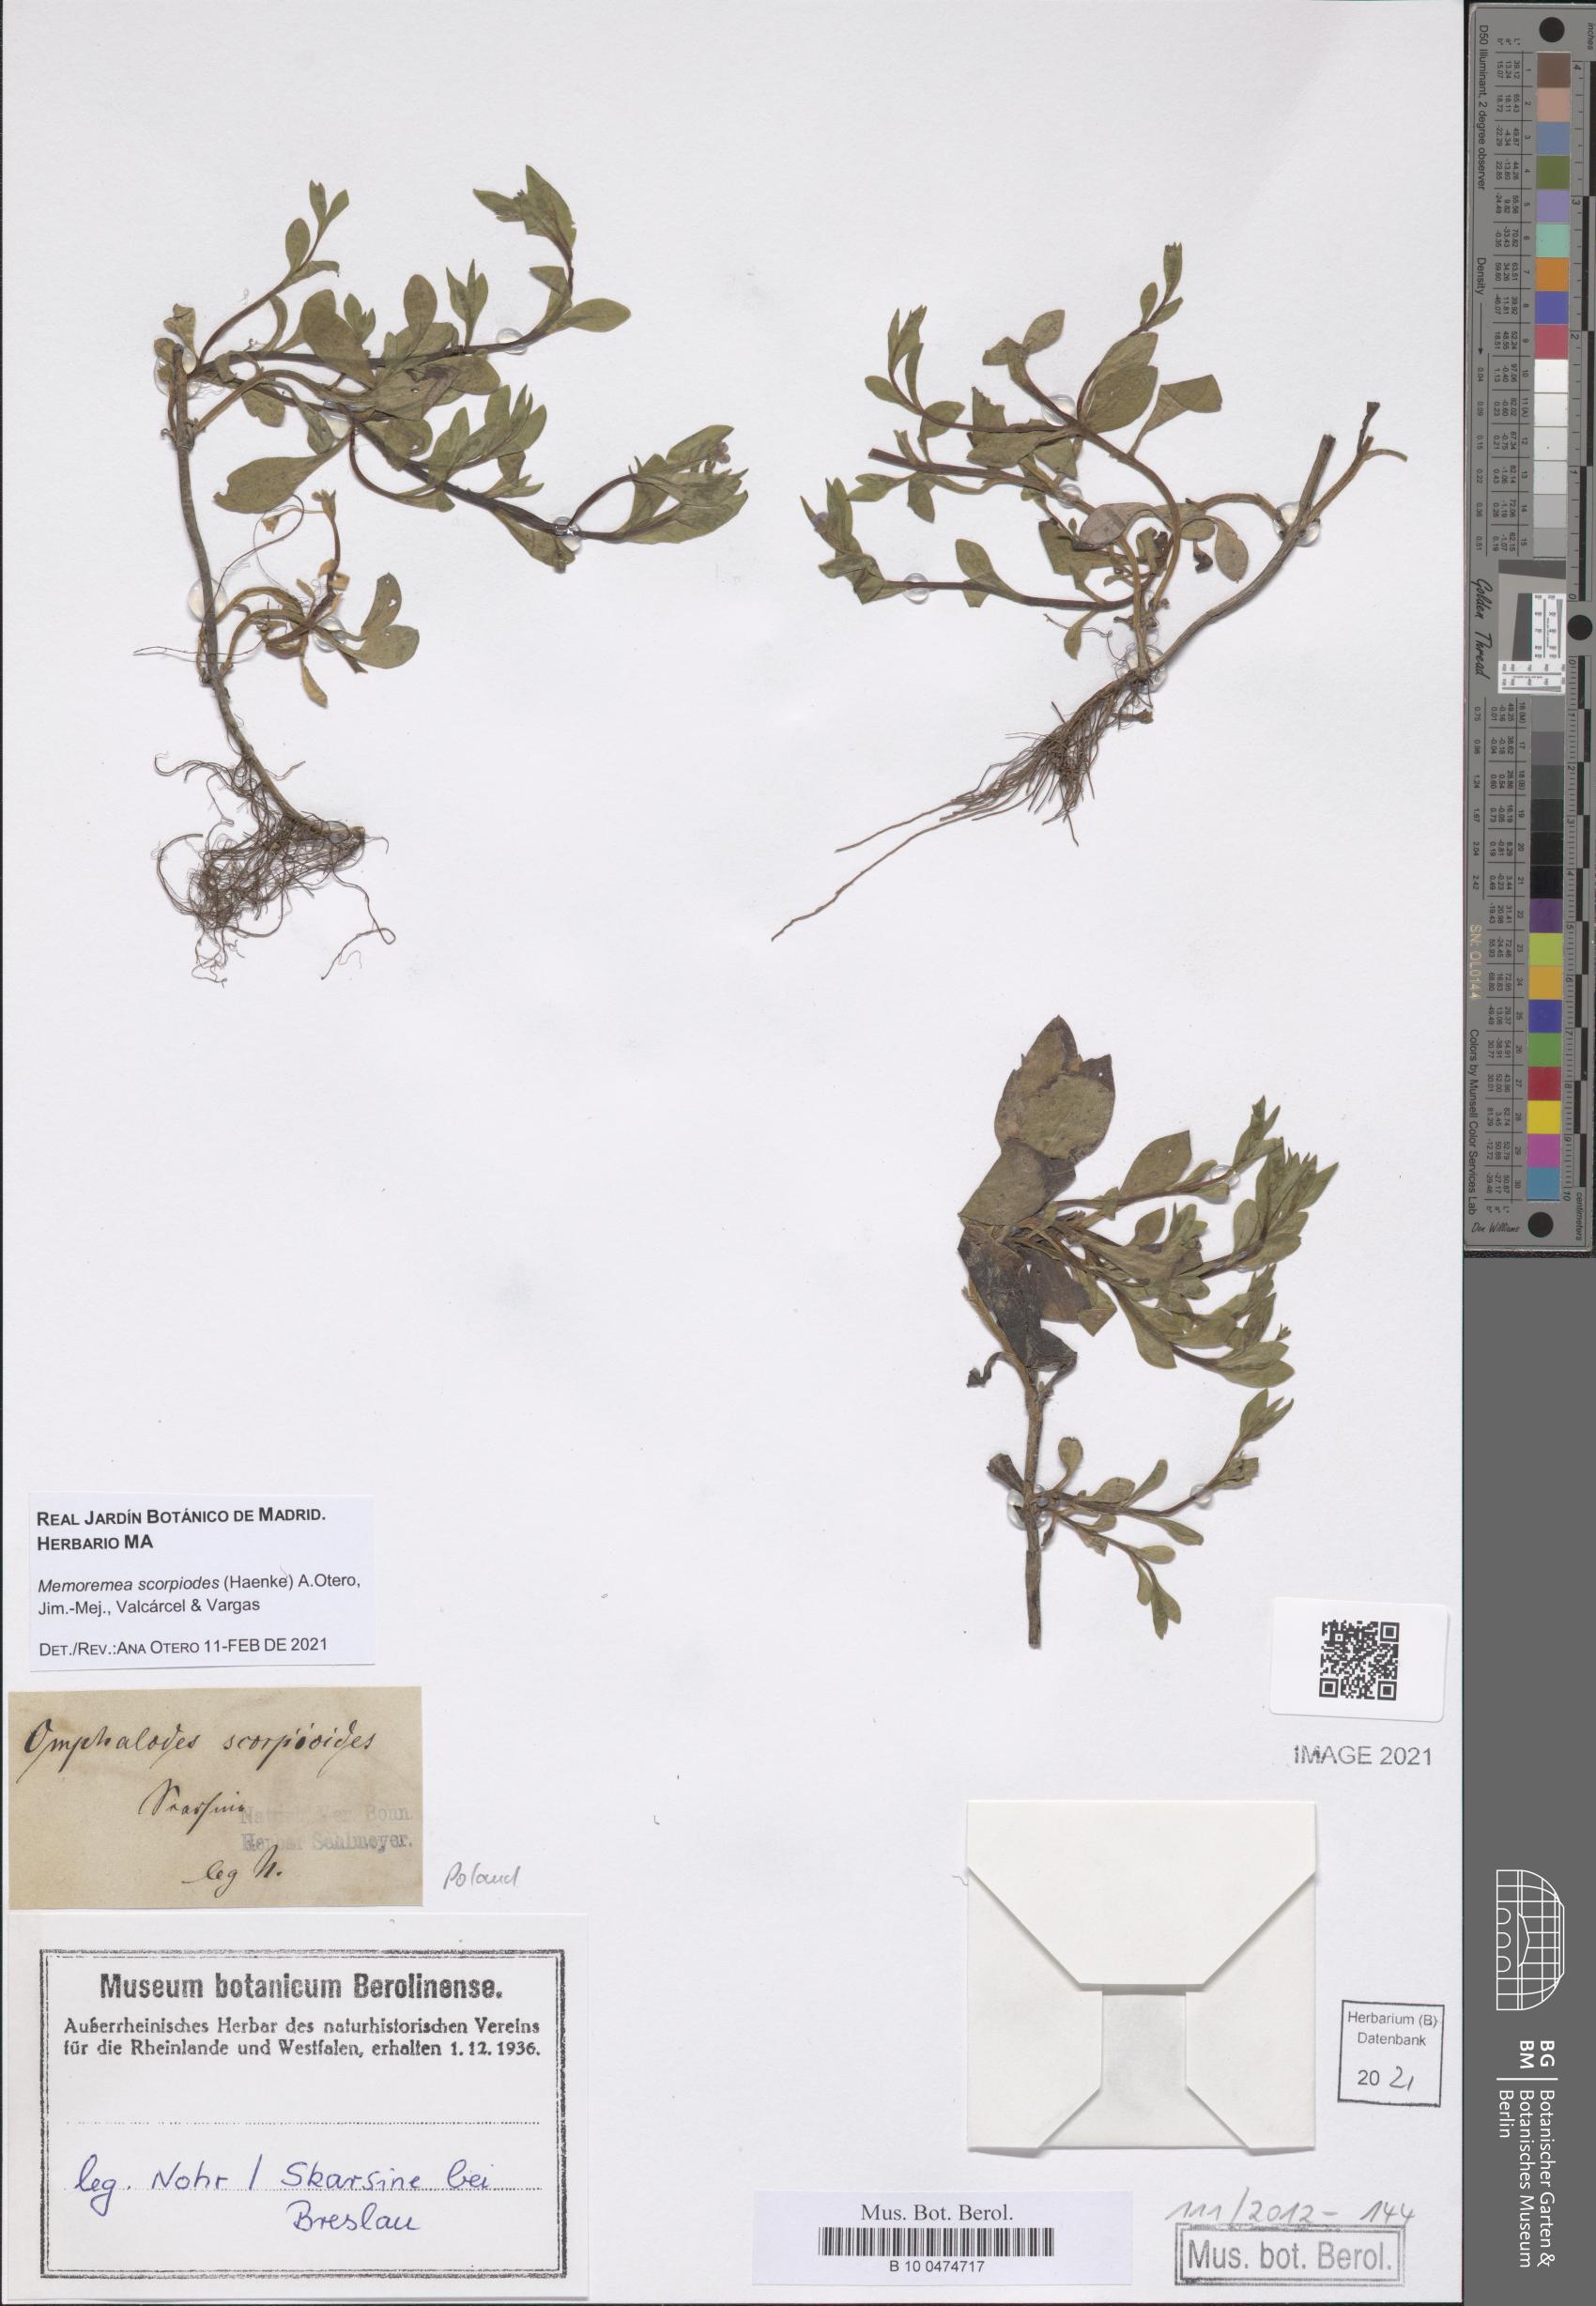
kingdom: Plantae
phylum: Tracheophyta
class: Magnoliopsida
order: Boraginales
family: Boraginaceae
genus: Memoremea
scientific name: Memoremea scorpioides
